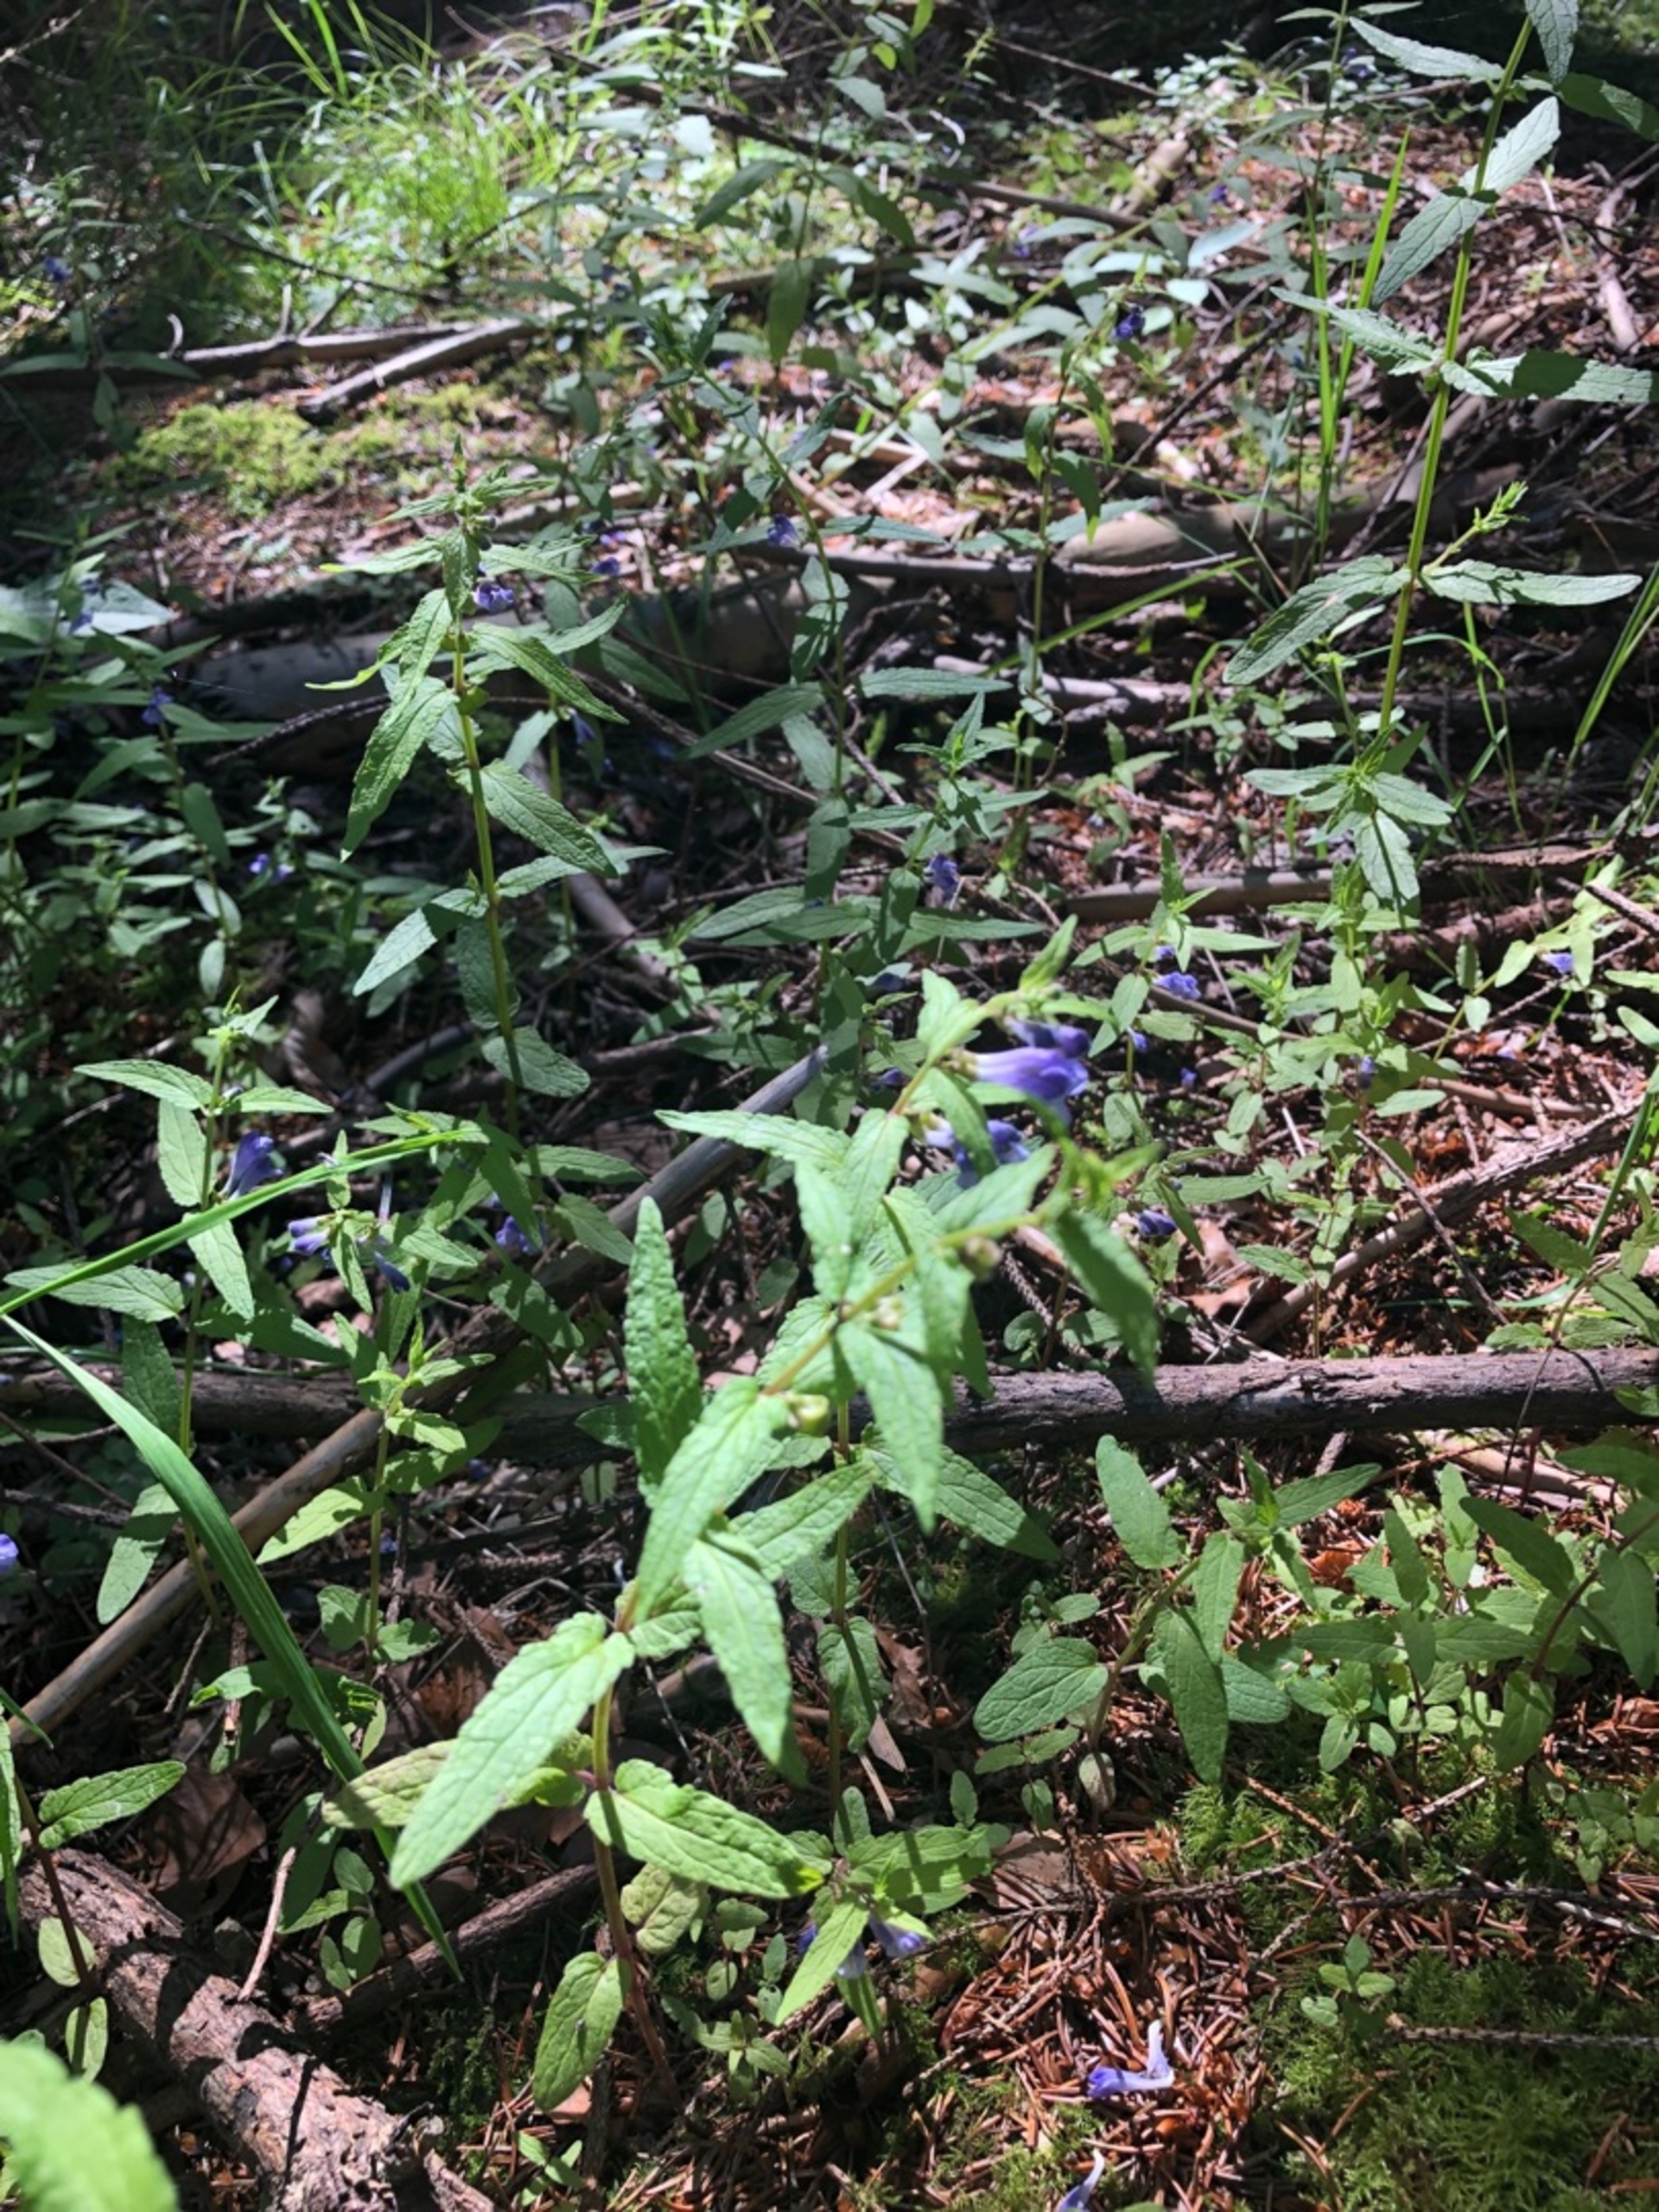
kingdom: Plantae
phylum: Tracheophyta
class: Magnoliopsida
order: Lamiales
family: Lamiaceae
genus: Scutellaria
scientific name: Scutellaria galericulata
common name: Almindelig skjolddrager
